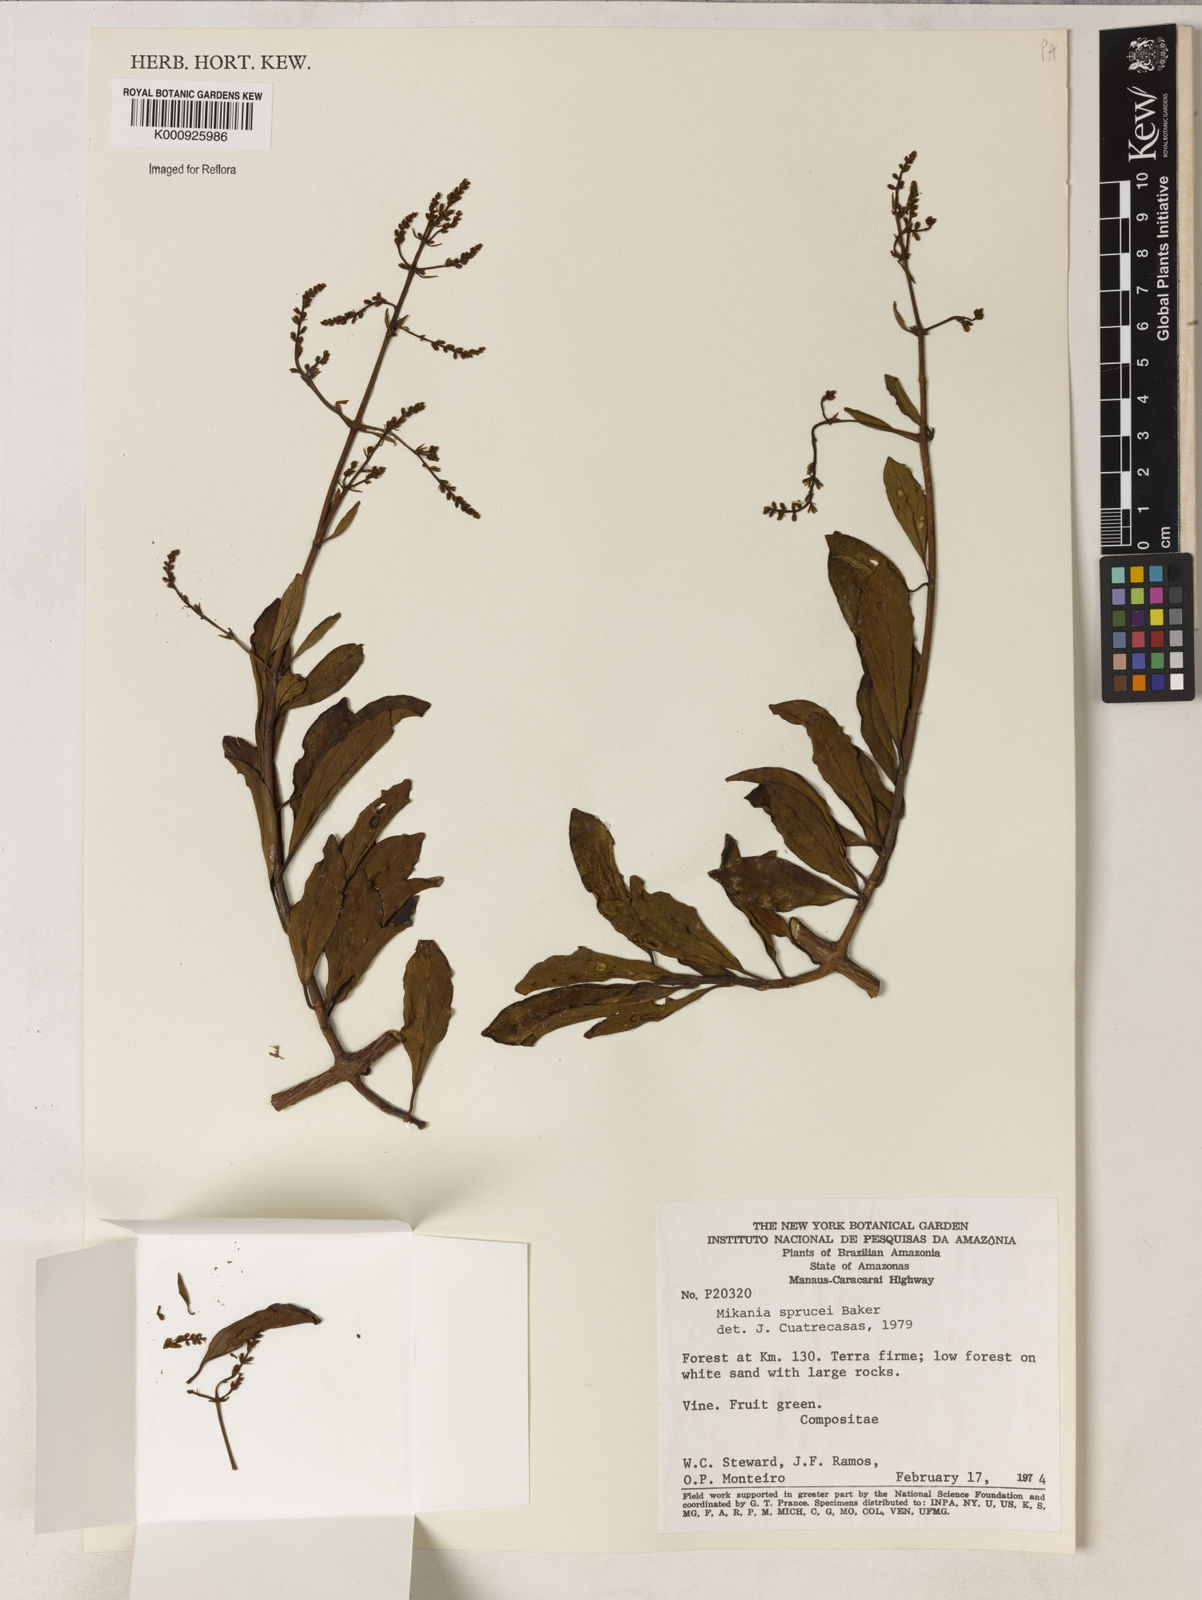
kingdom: Plantae
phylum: Tracheophyta
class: Magnoliopsida
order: Asterales
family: Asteraceae
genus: Mikania
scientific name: Mikania
